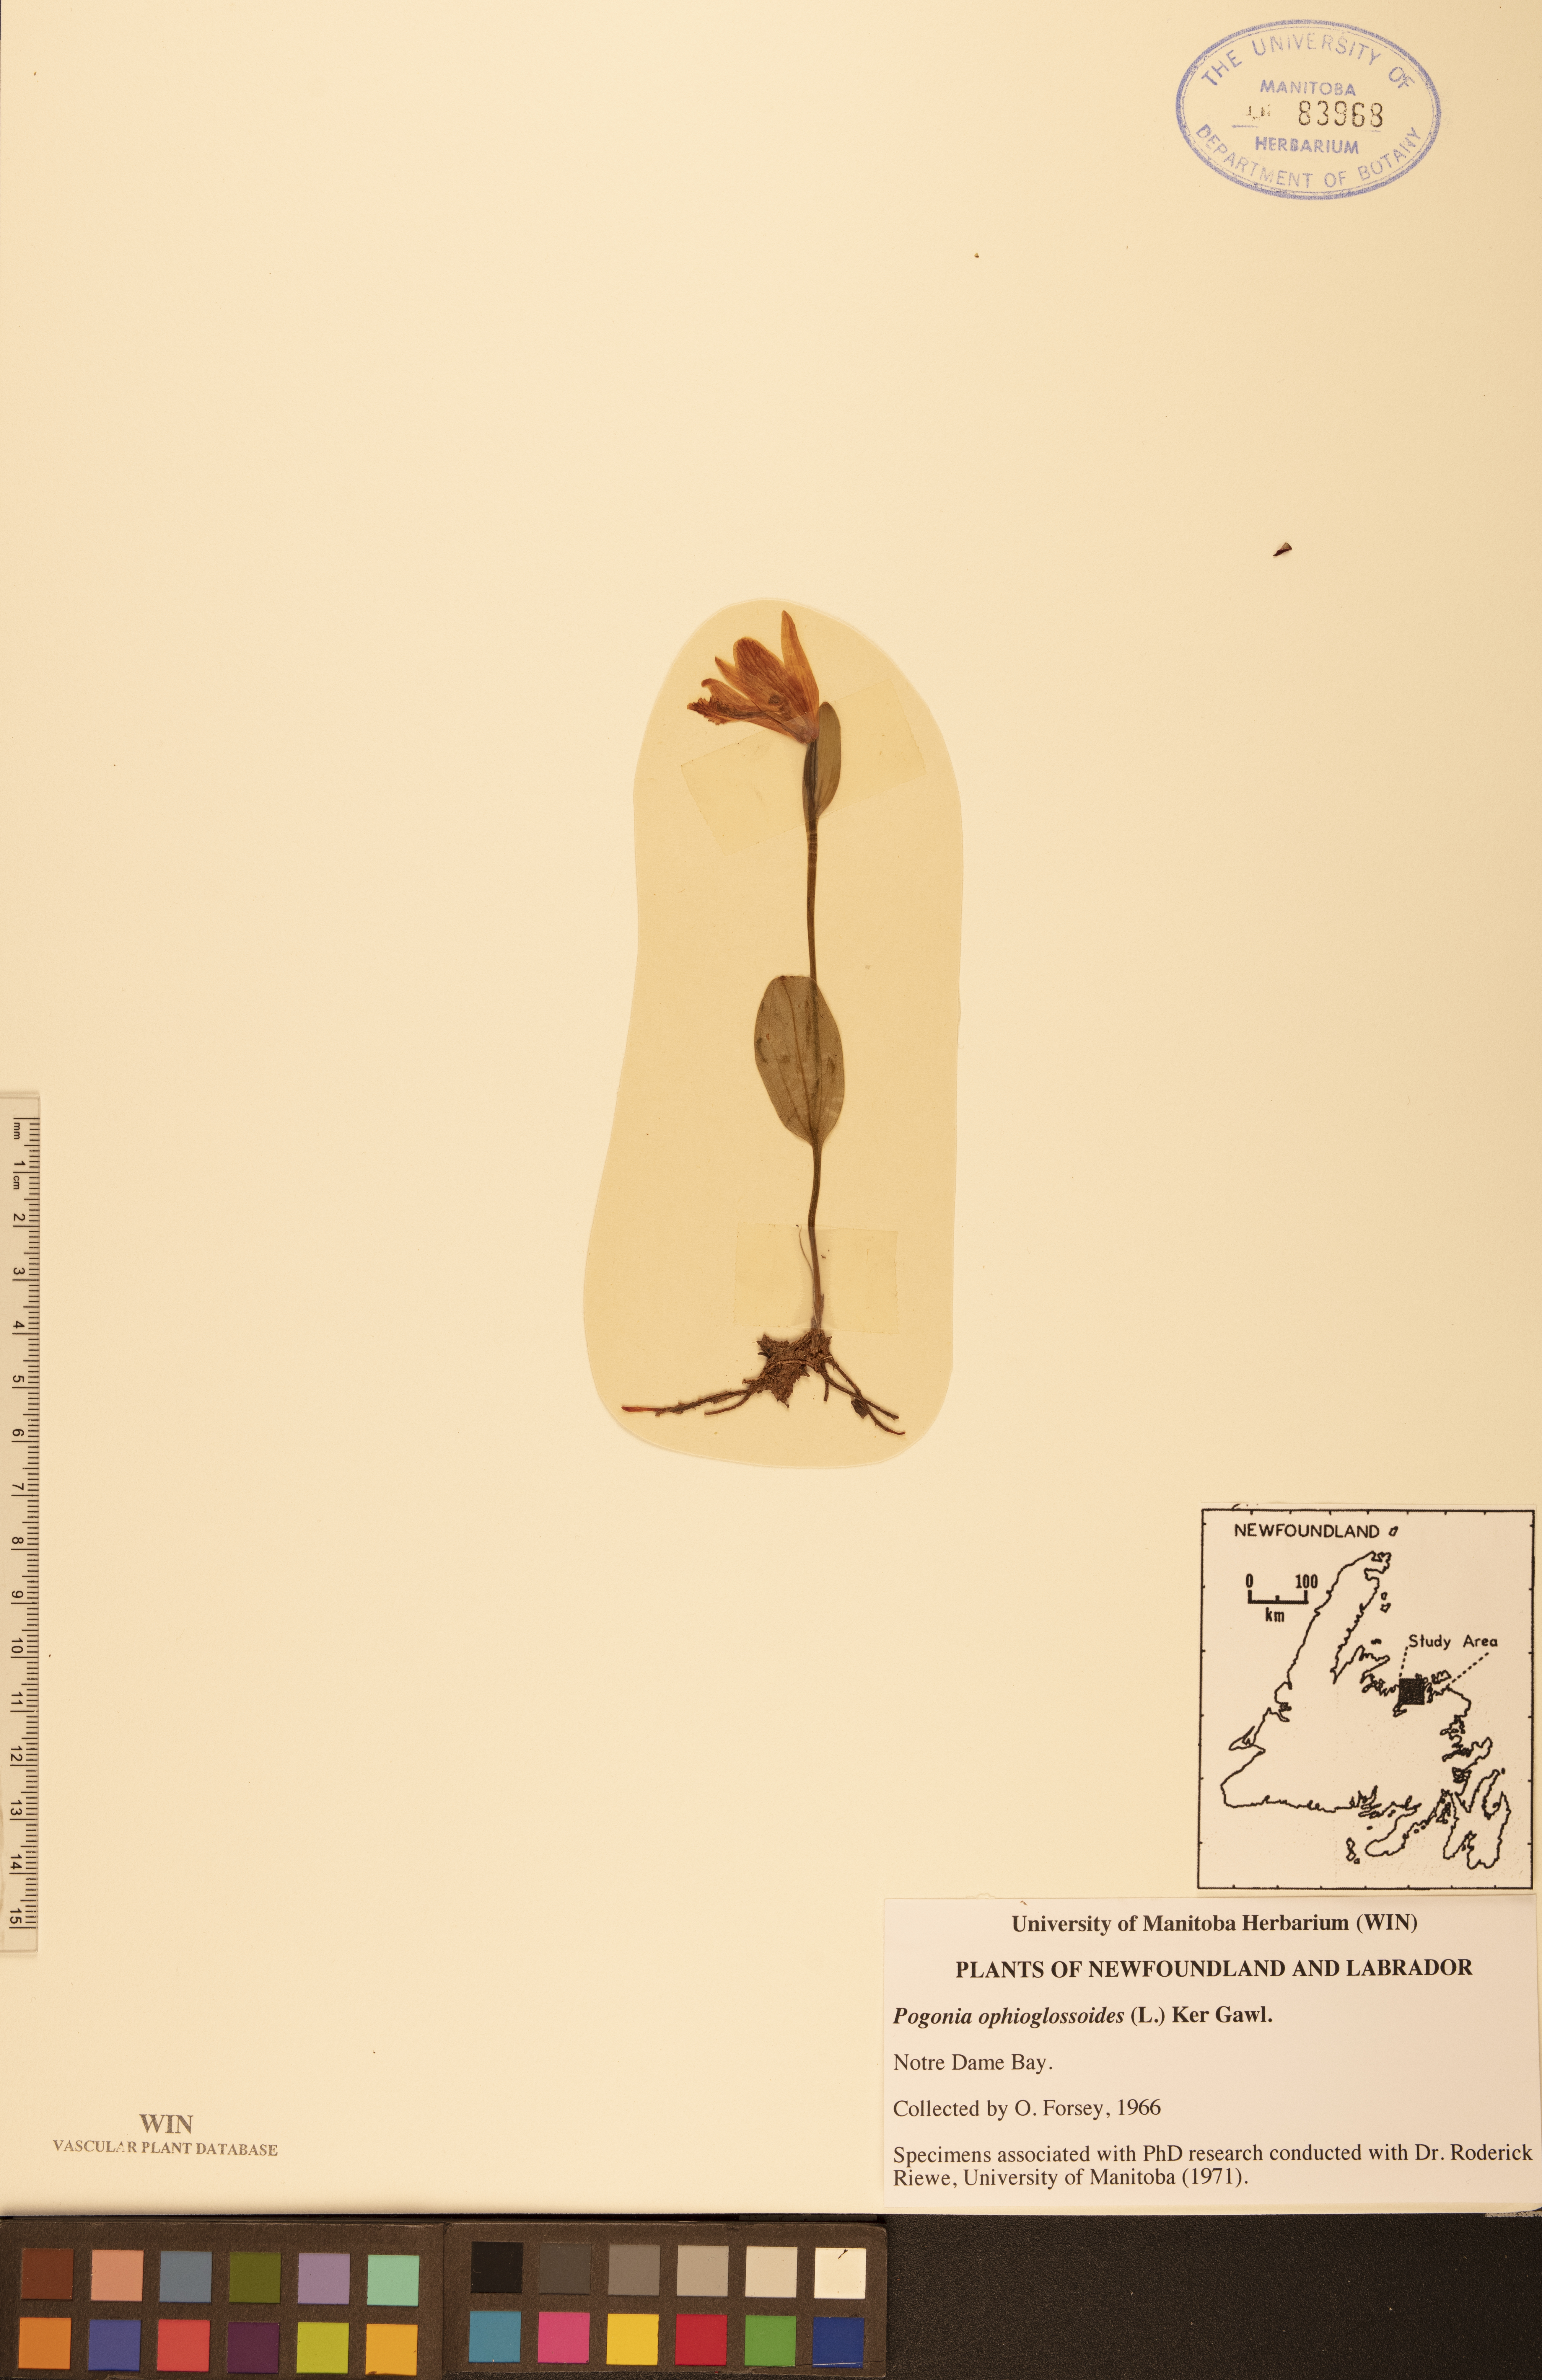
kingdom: Plantae
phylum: Tracheophyta
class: Liliopsida
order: Asparagales
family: Orchidaceae
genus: Pogonia
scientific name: Pogonia ophioglossoides
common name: Rose pogonia
